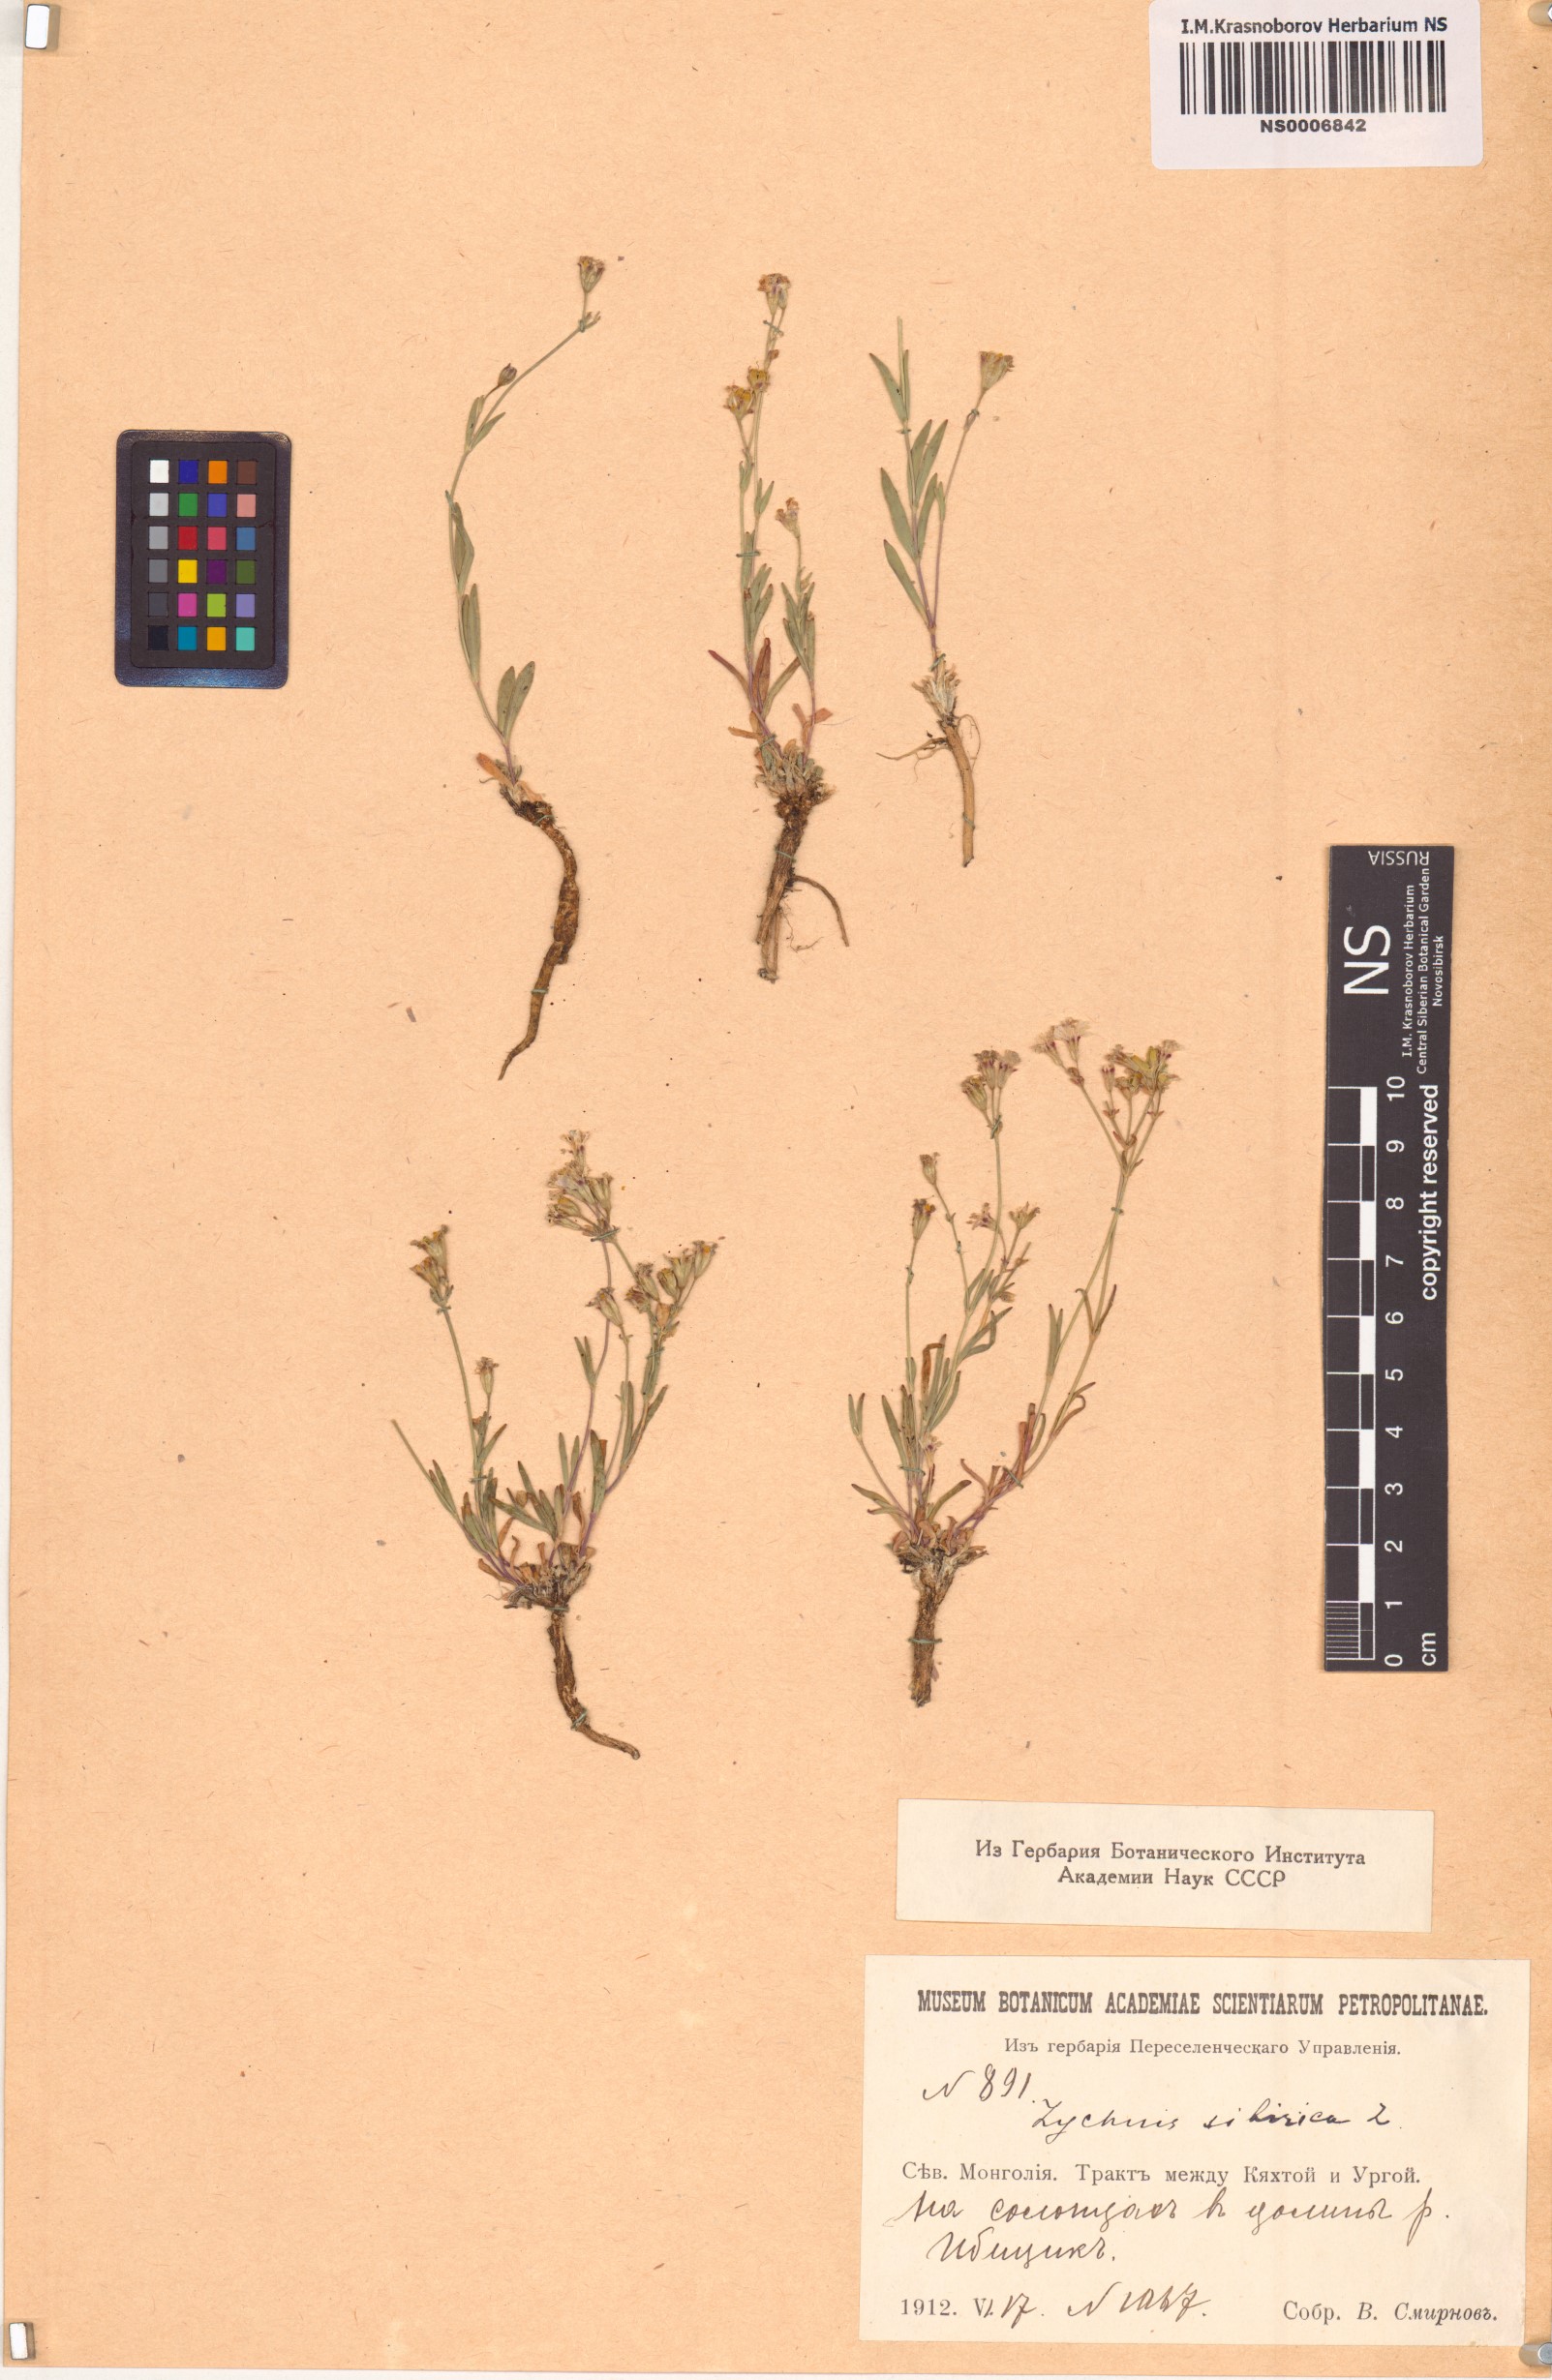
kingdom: Plantae
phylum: Tracheophyta
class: Magnoliopsida
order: Caryophyllales
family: Caryophyllaceae
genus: Silene
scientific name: Silene orientalimongolica
